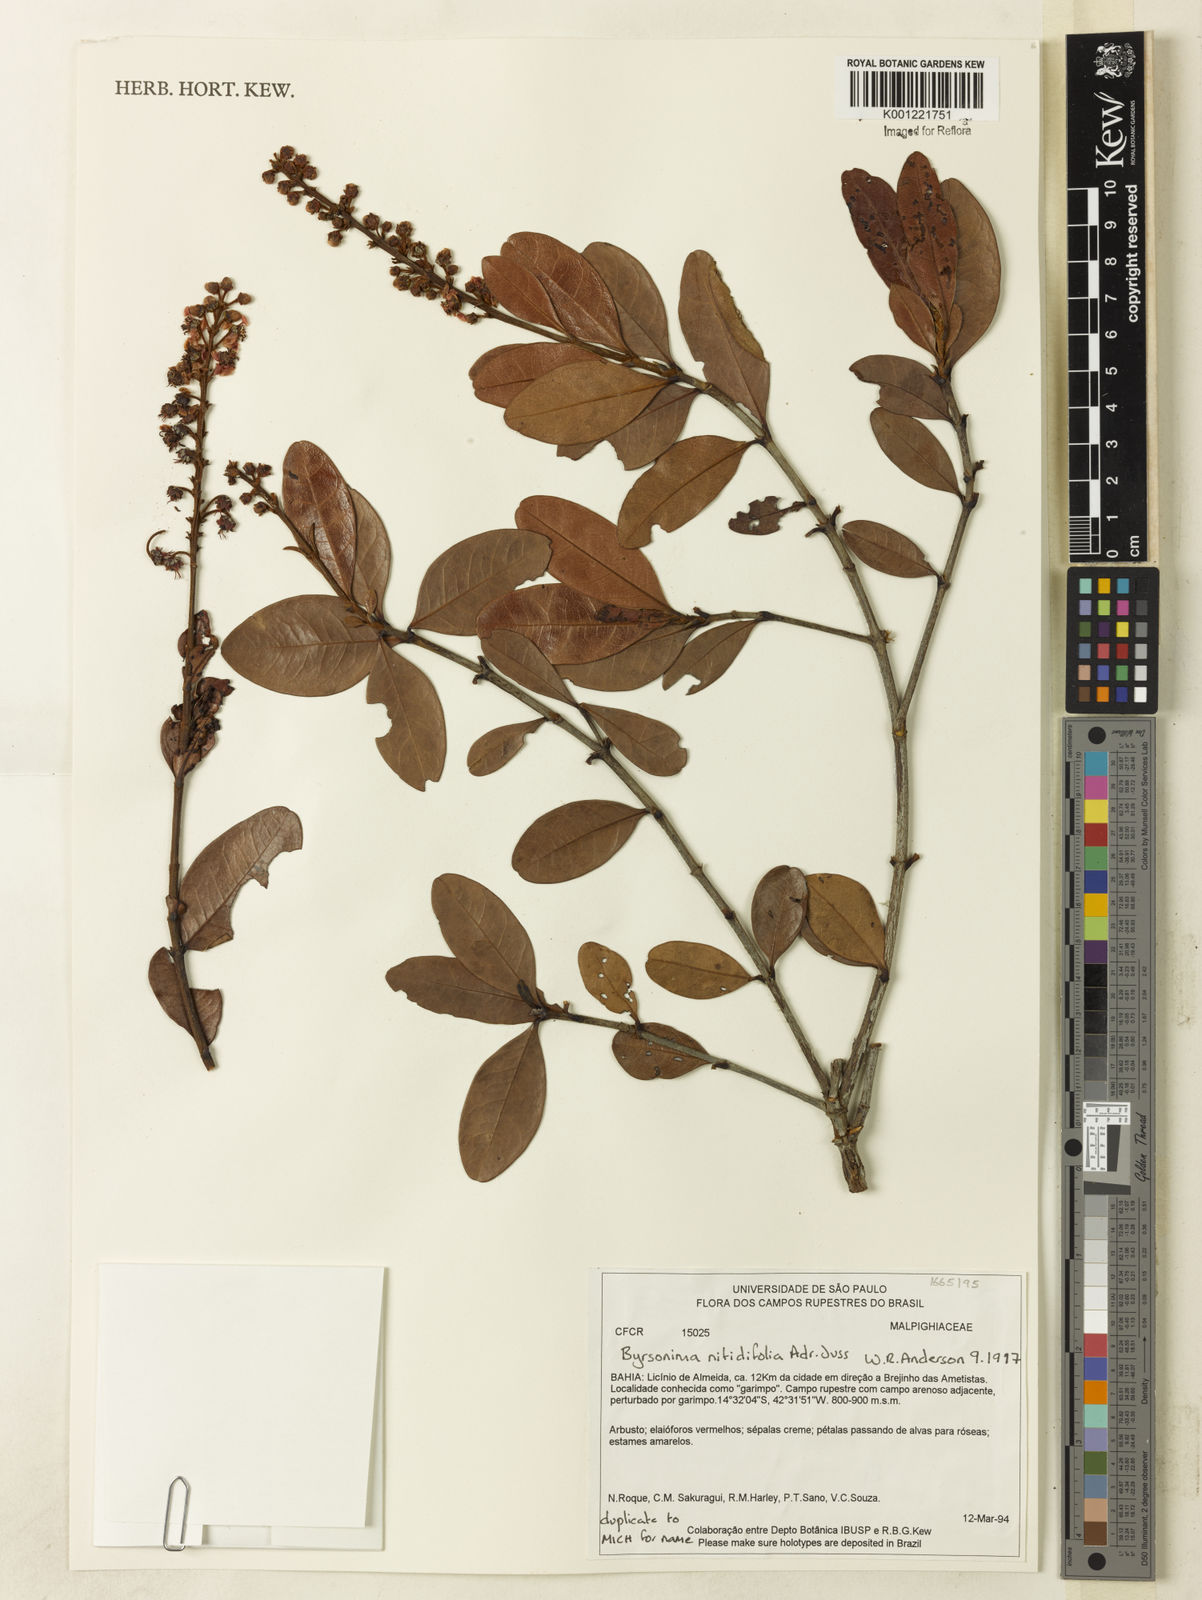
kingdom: Plantae
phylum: Tracheophyta
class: Magnoliopsida
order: Malpighiales
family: Malpighiaceae
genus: Byrsonima
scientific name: Byrsonima nitidifolia
